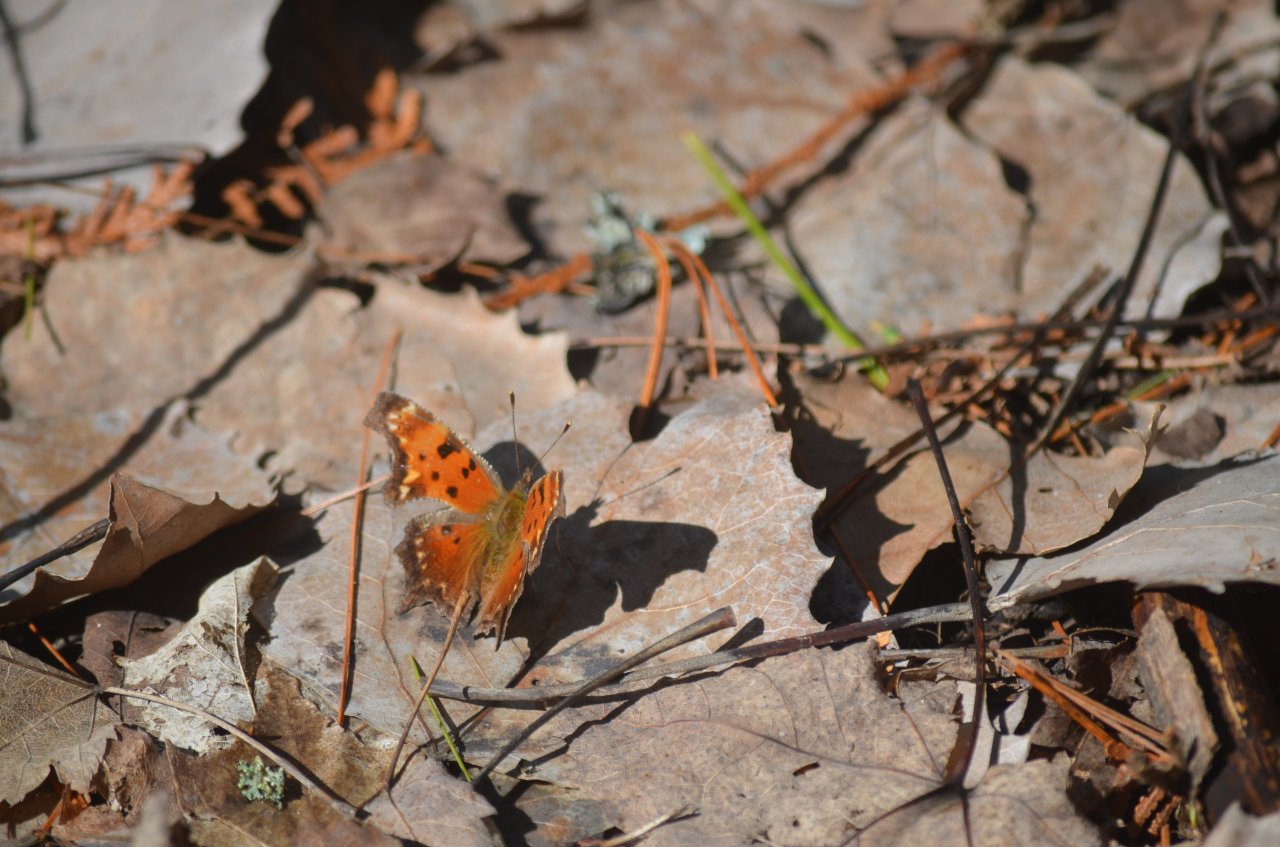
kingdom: Animalia
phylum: Arthropoda
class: Insecta
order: Lepidoptera
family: Nymphalidae
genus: Polygonia
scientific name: Polygonia progne
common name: Gray Comma
